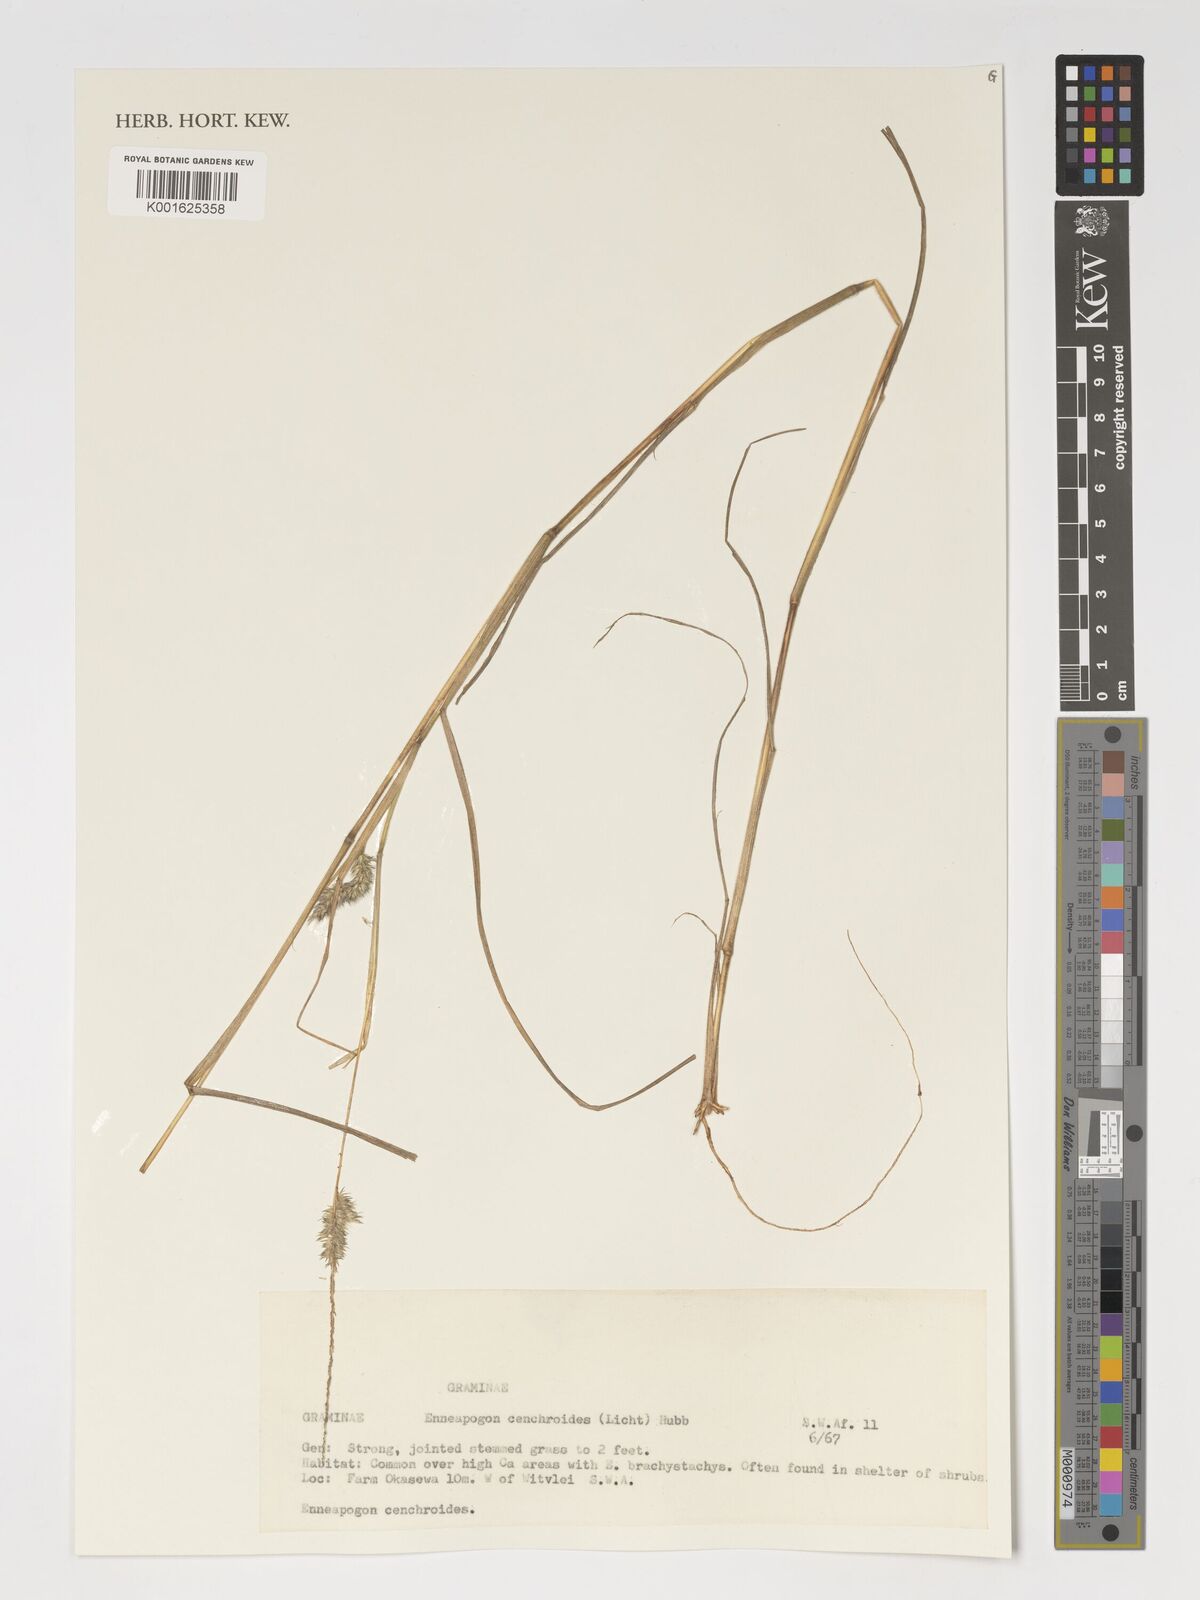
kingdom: Plantae
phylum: Tracheophyta
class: Liliopsida
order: Poales
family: Poaceae
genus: Enneapogon
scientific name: Enneapogon cenchroides
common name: Soft feather pappusgrass
